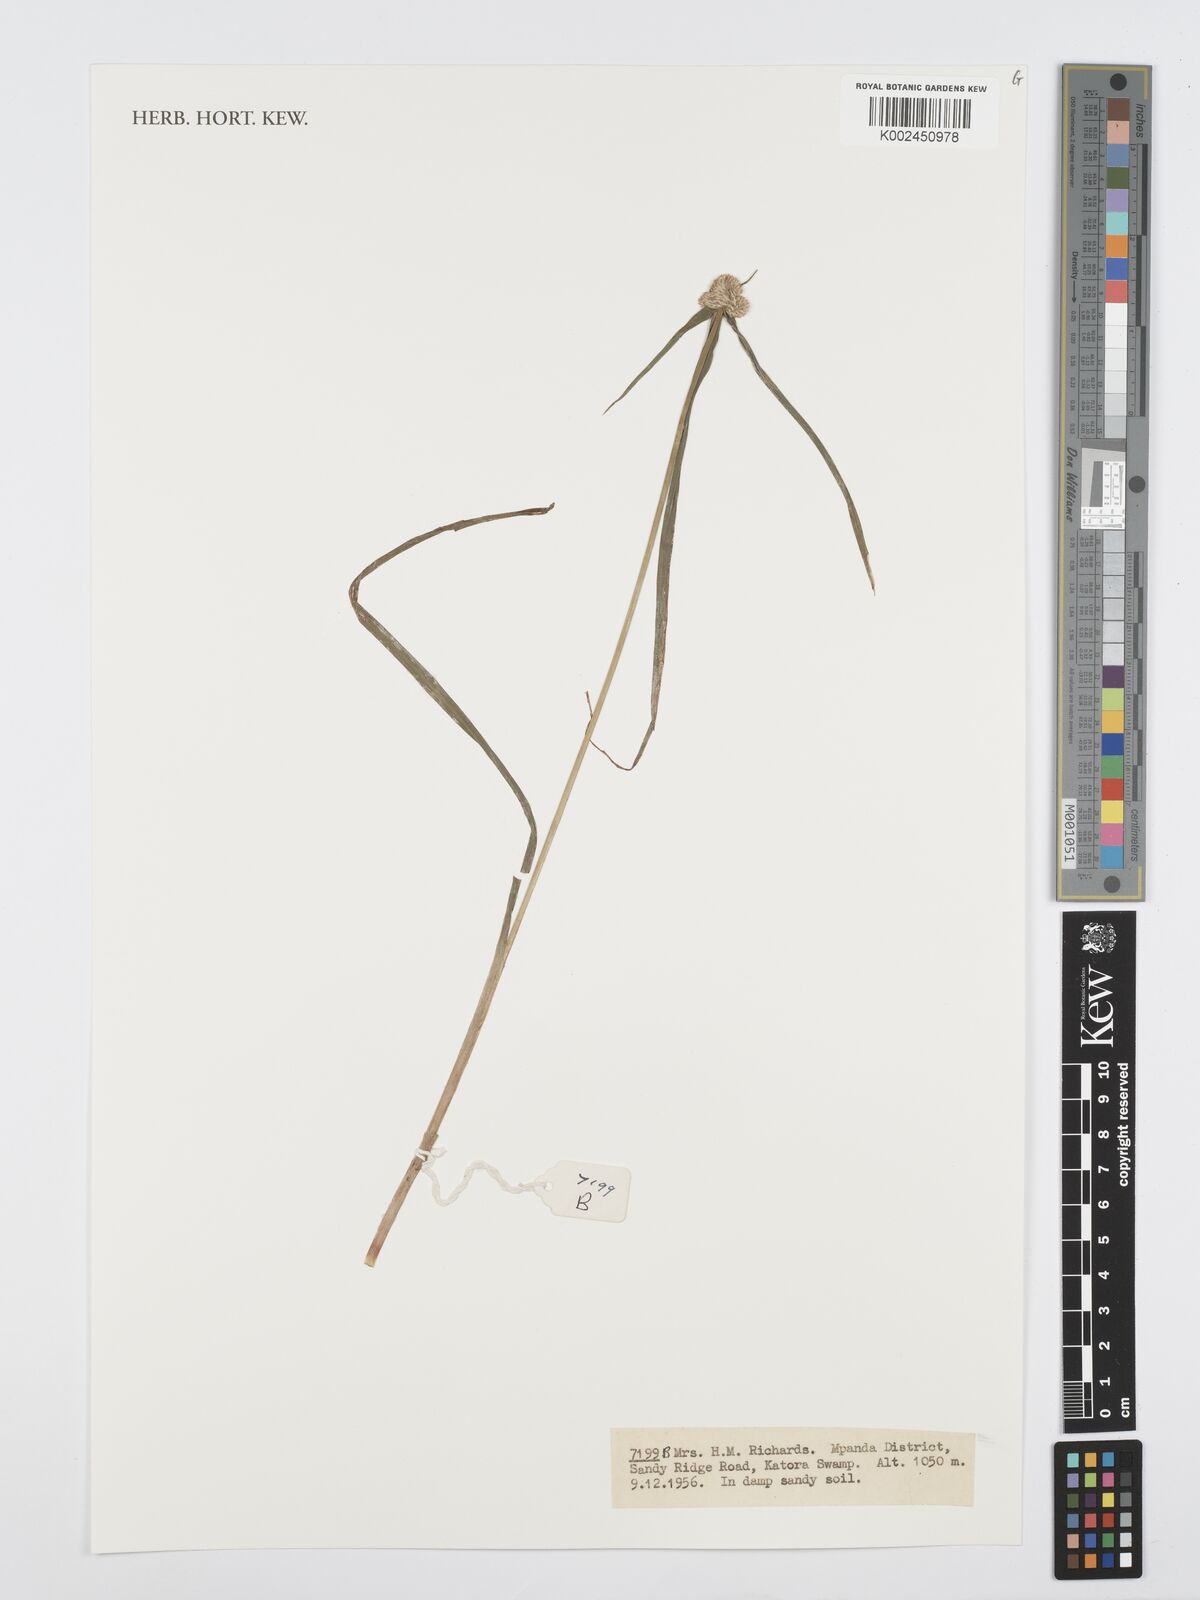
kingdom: Plantae
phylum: Tracheophyta
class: Liliopsida
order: Poales
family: Cyperaceae
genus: Cyperus
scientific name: Cyperus
